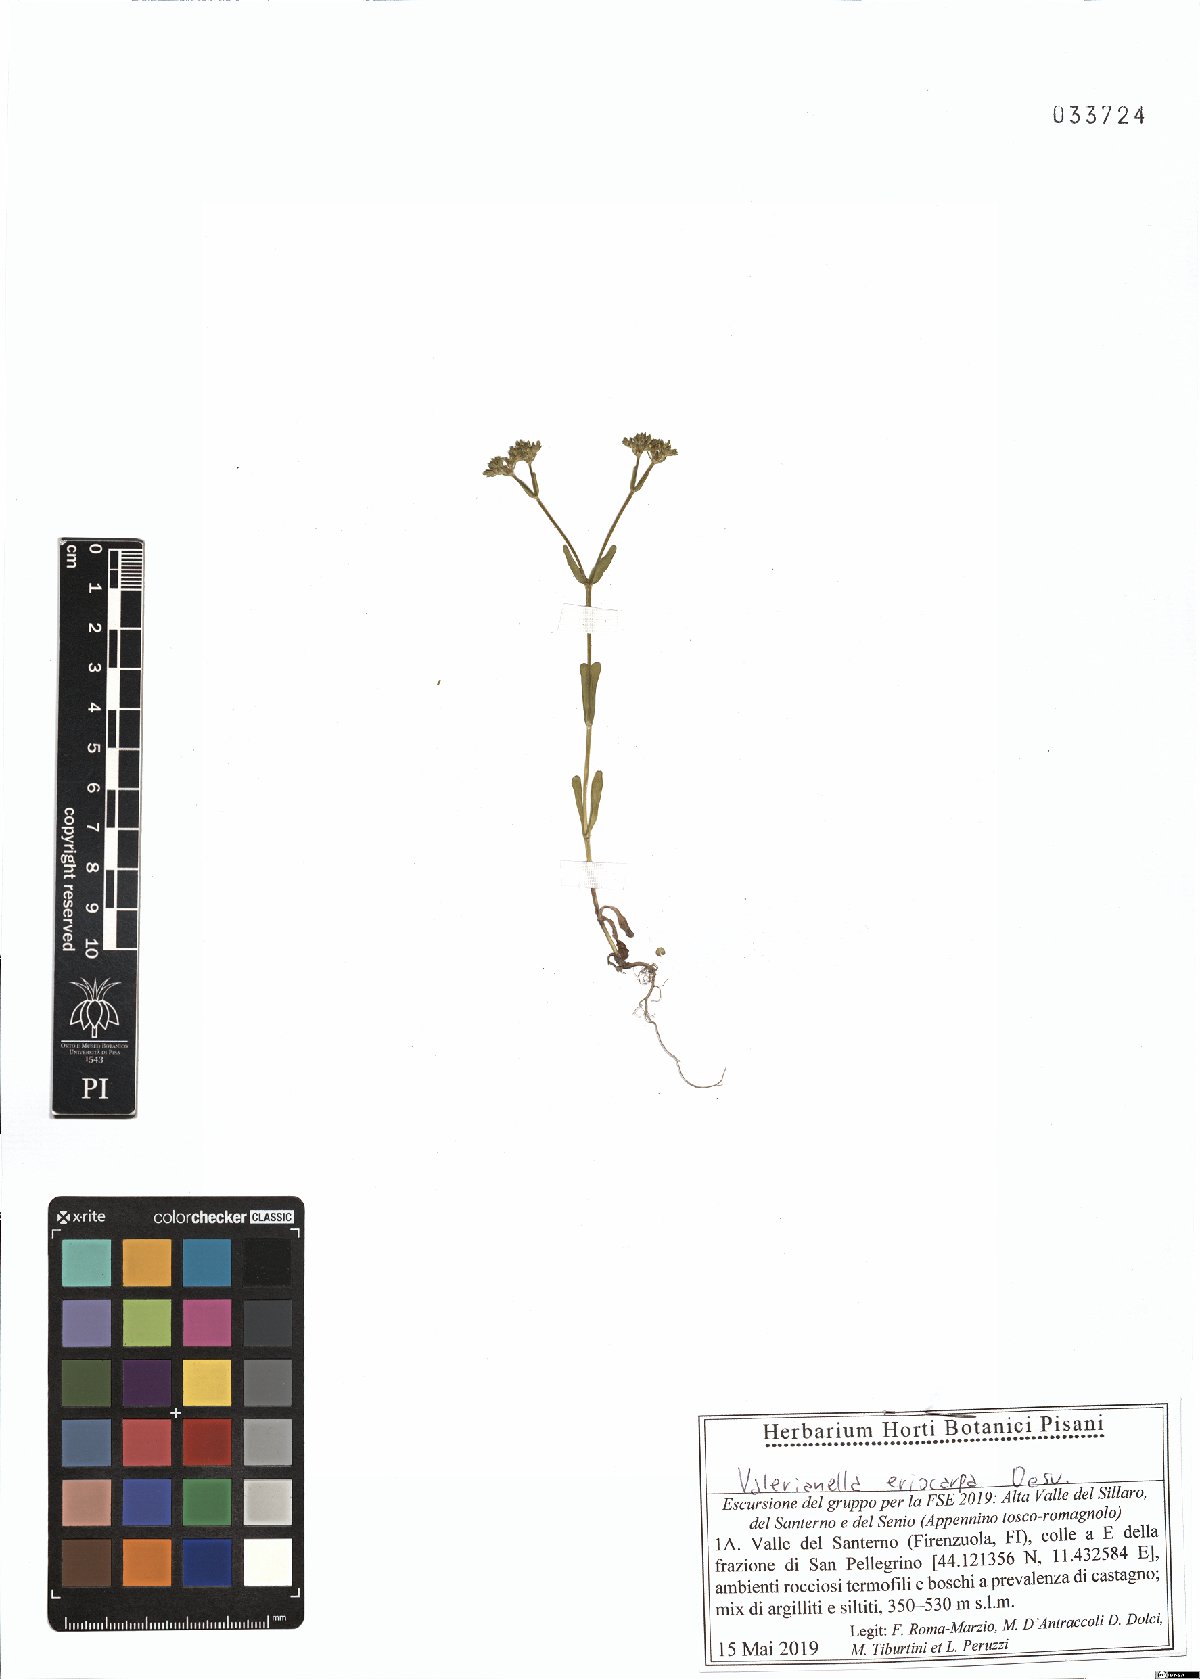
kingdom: Plantae
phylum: Tracheophyta
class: Magnoliopsida
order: Dipsacales
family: Caprifoliaceae
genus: Valerianella
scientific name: Valerianella eriocarpa
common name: Hairy-fruited cornsalad
